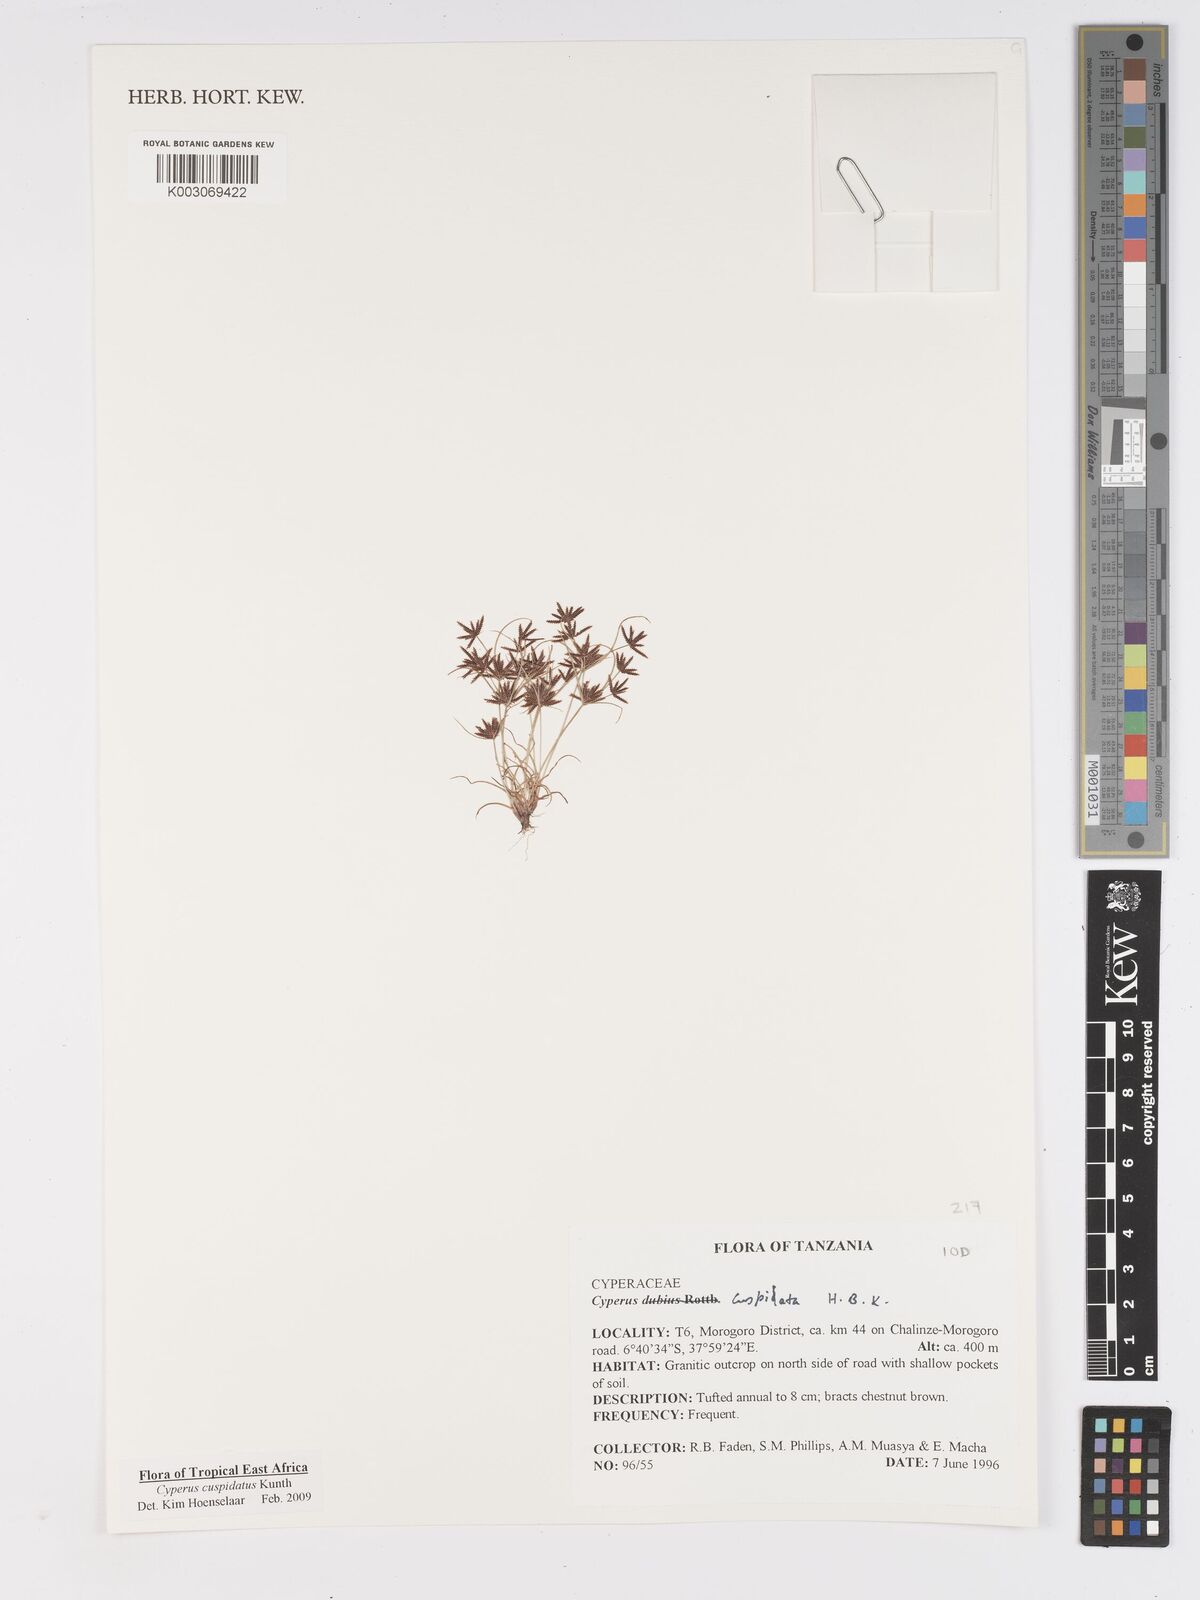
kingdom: Plantae
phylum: Tracheophyta
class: Liliopsida
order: Poales
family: Cyperaceae
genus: Cyperus
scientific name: Cyperus cuspidatus
